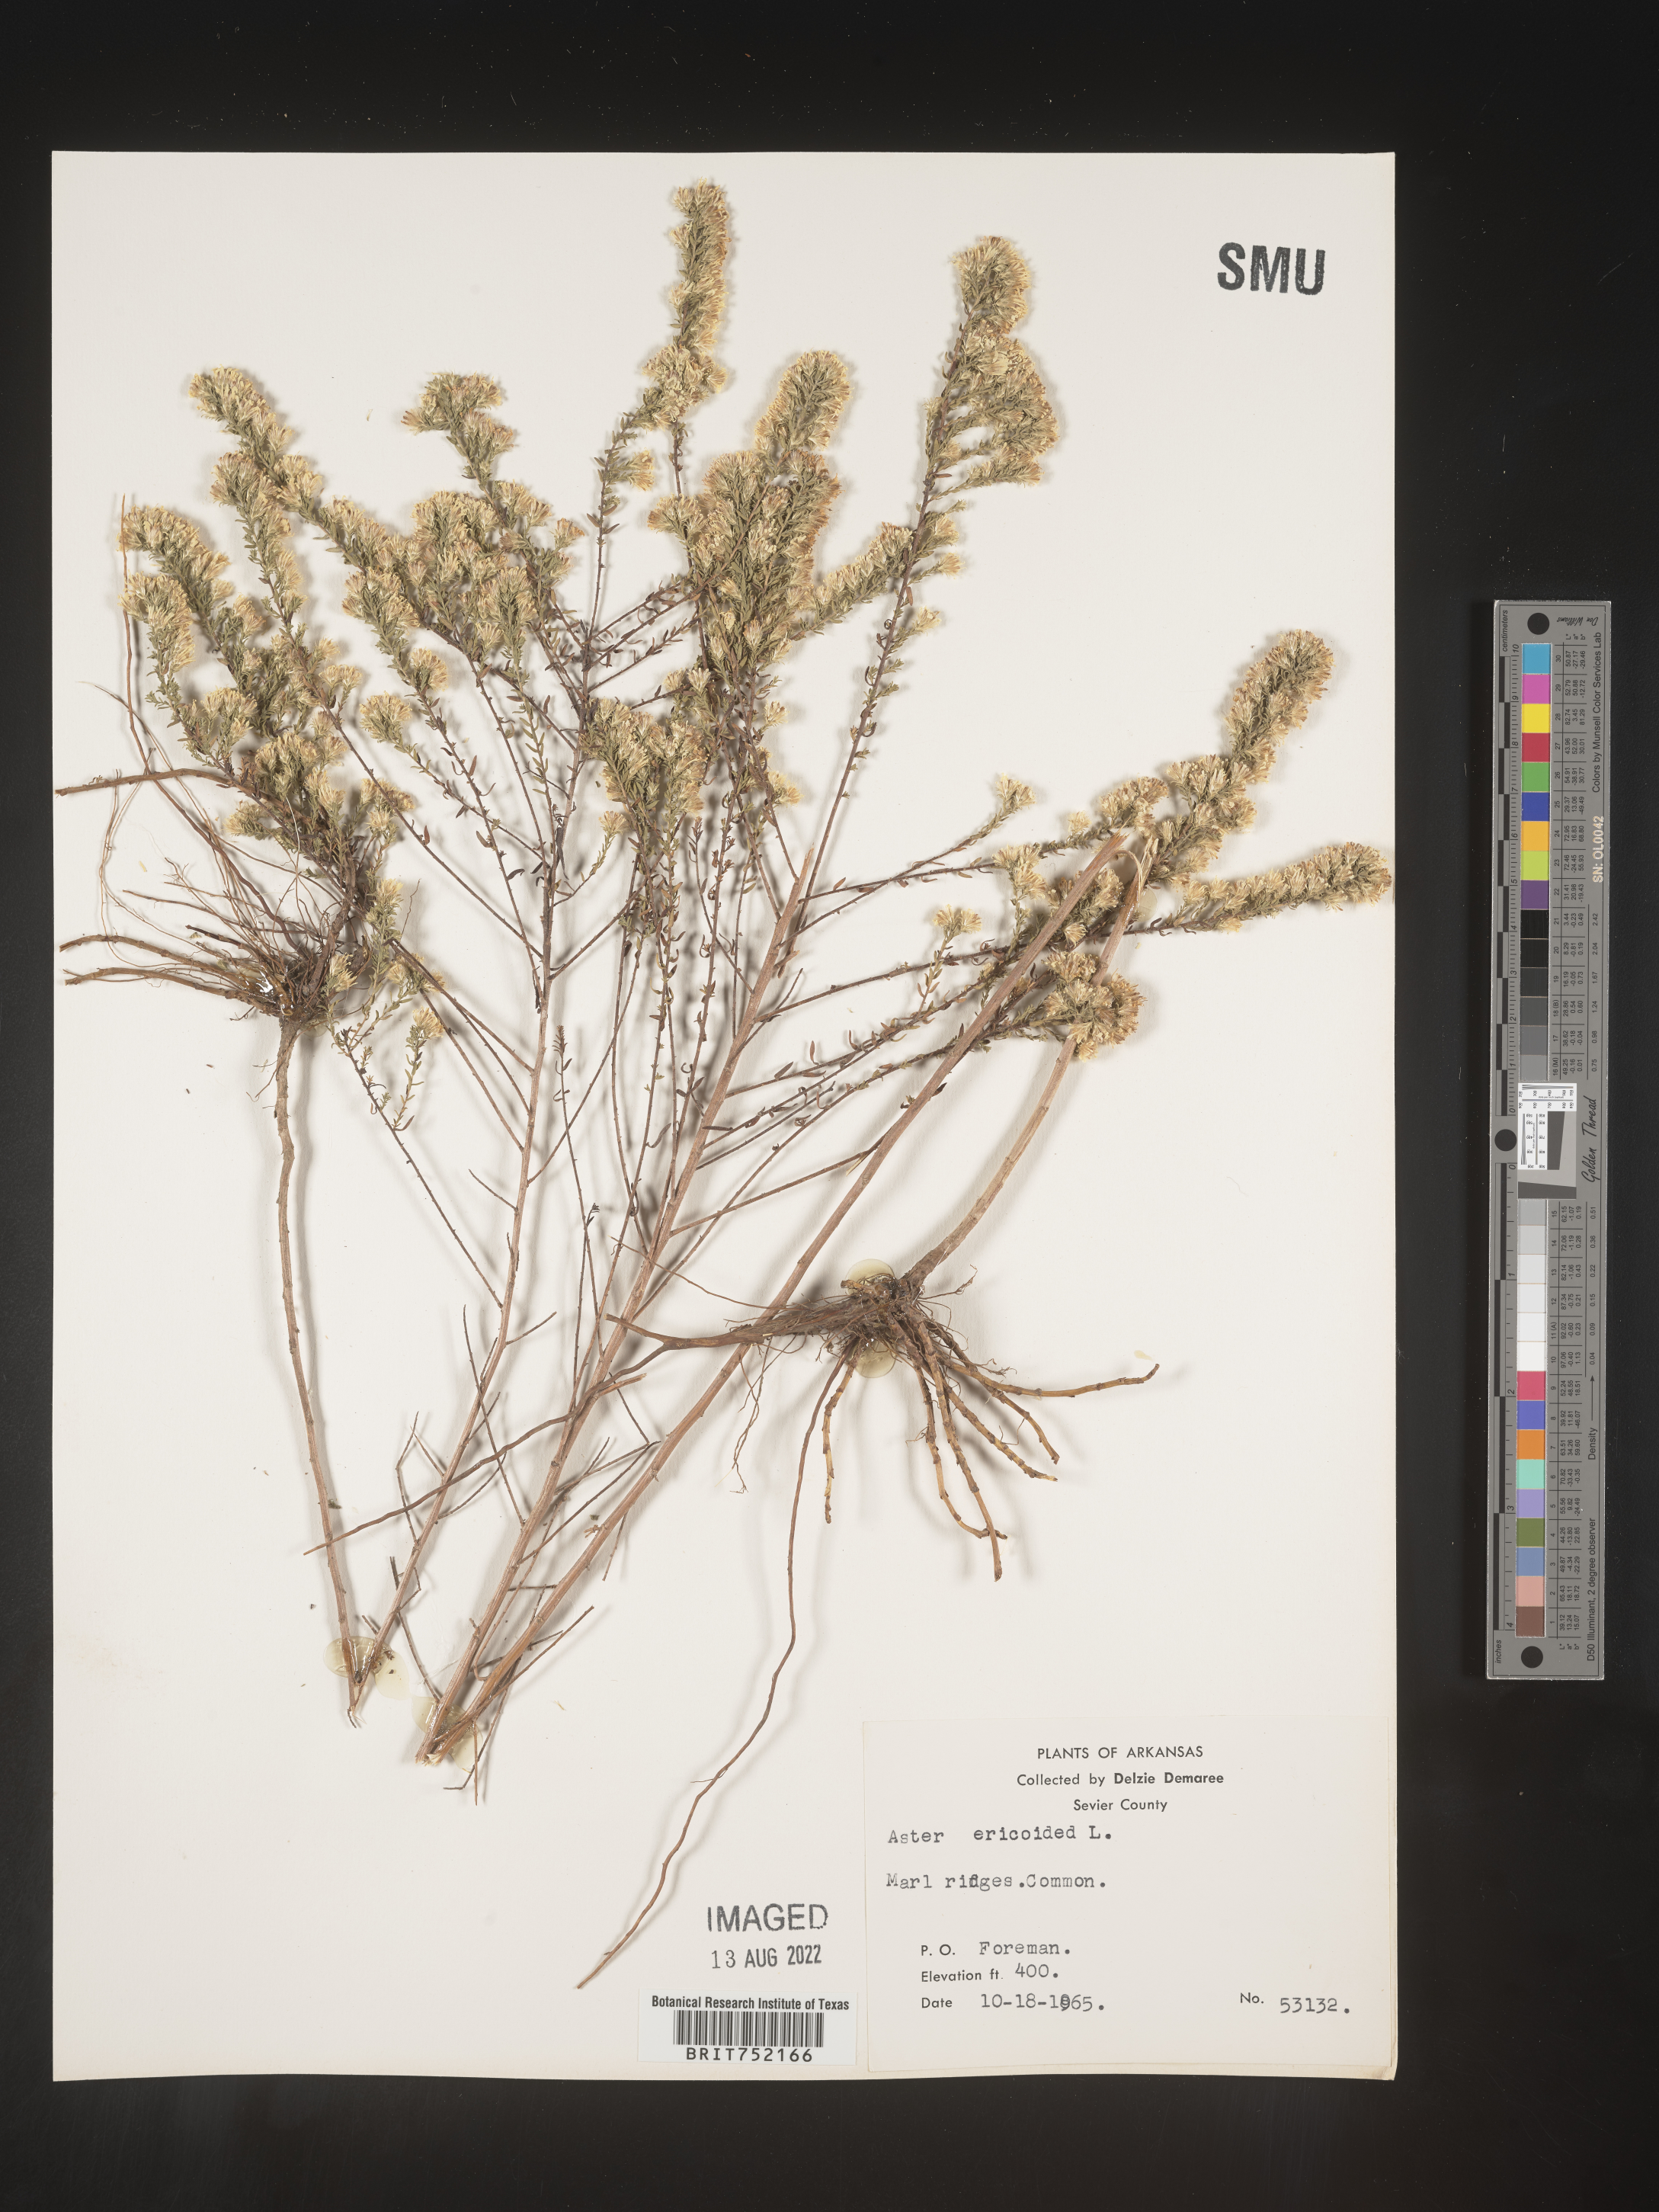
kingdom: Plantae
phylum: Tracheophyta
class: Magnoliopsida
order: Asterales
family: Asteraceae
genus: Symphyotrichum
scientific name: Symphyotrichum ericoides
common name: Heath aster
